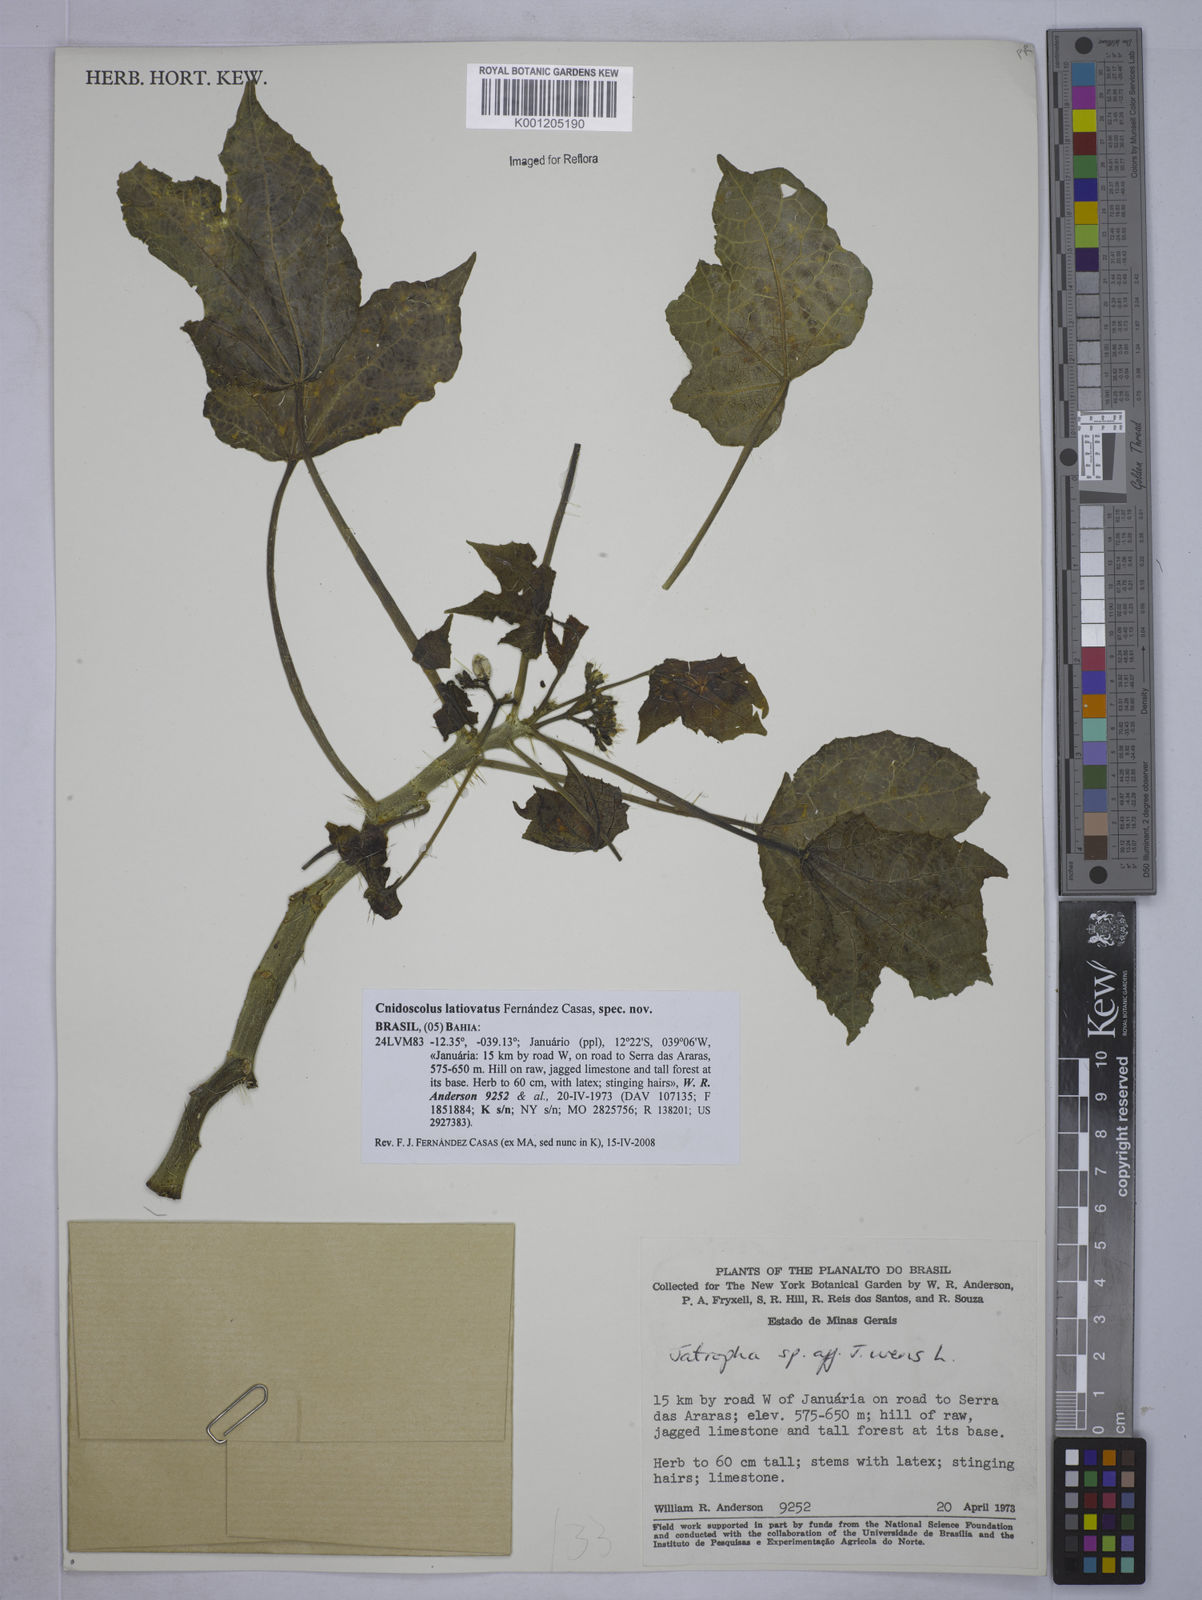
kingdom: Plantae
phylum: Tracheophyta
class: Magnoliopsida
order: Malpighiales
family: Euphorbiaceae
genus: Cnidoscolus
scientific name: Cnidoscolus
